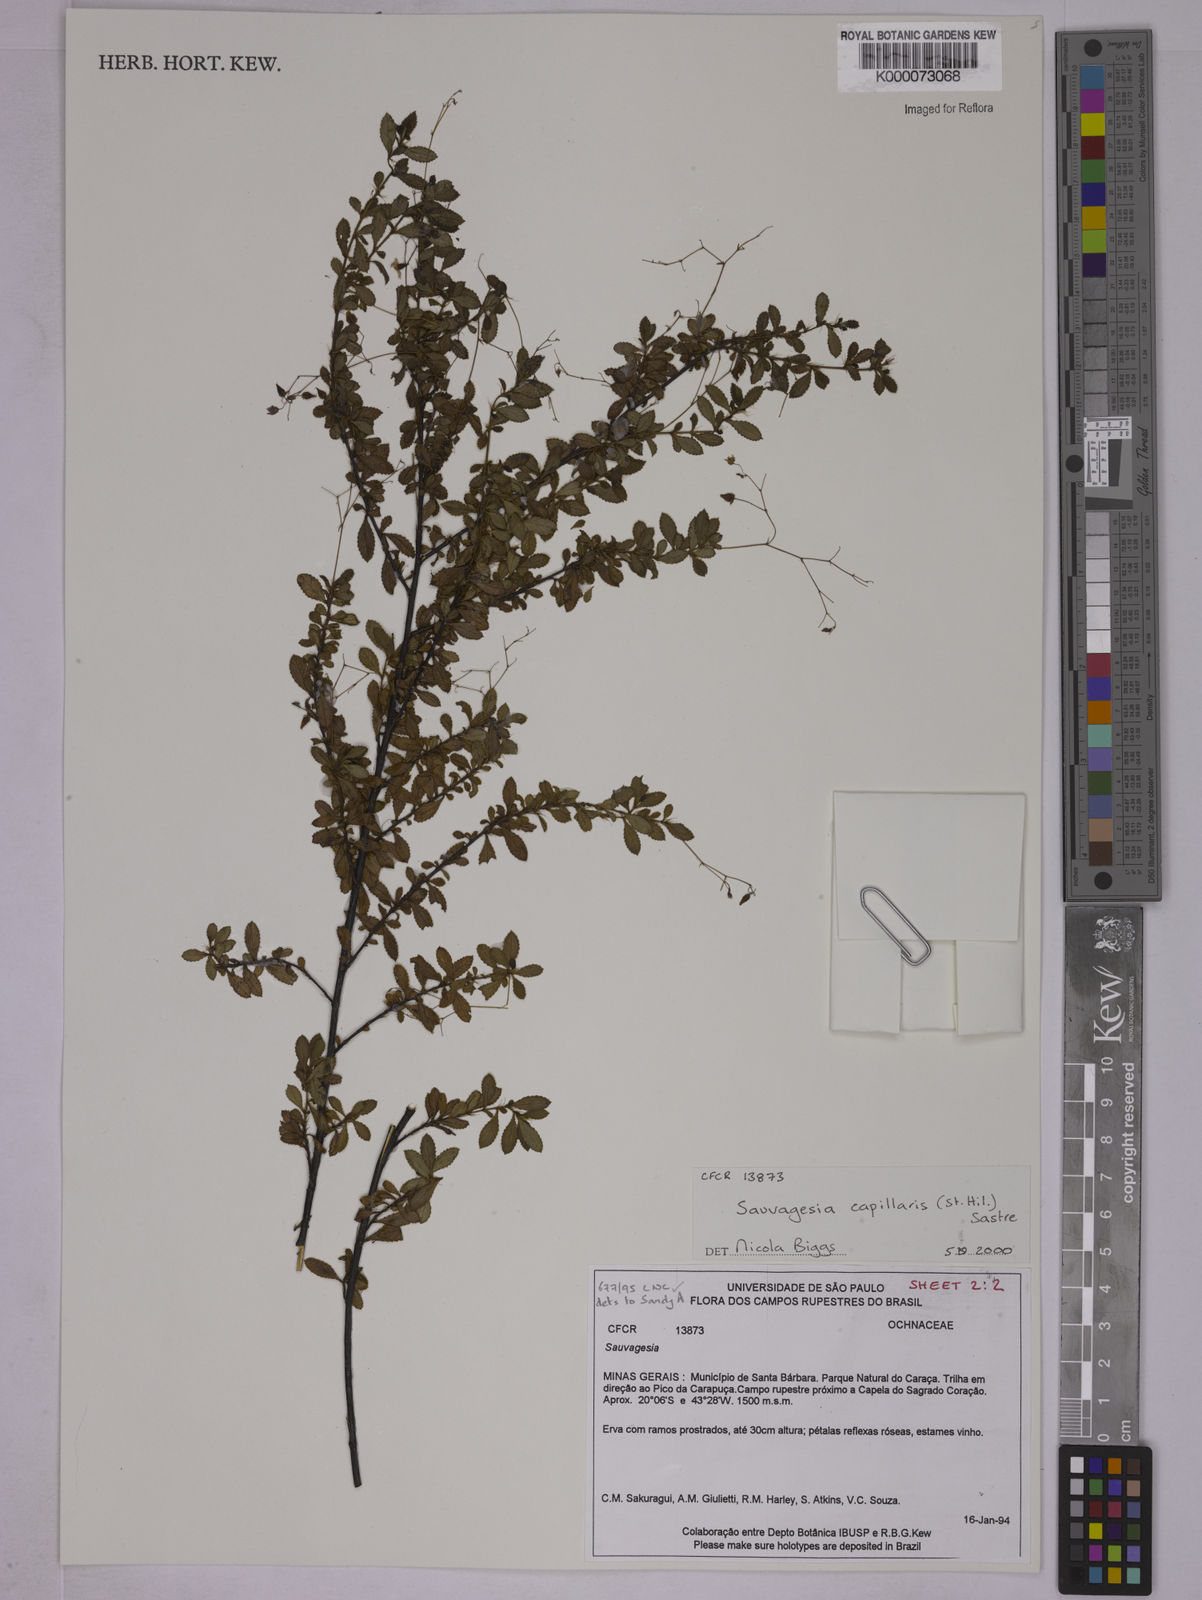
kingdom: Plantae
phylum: Tracheophyta
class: Magnoliopsida
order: Malpighiales
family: Ochnaceae
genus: Sauvagesia
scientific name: Sauvagesia capillaris
